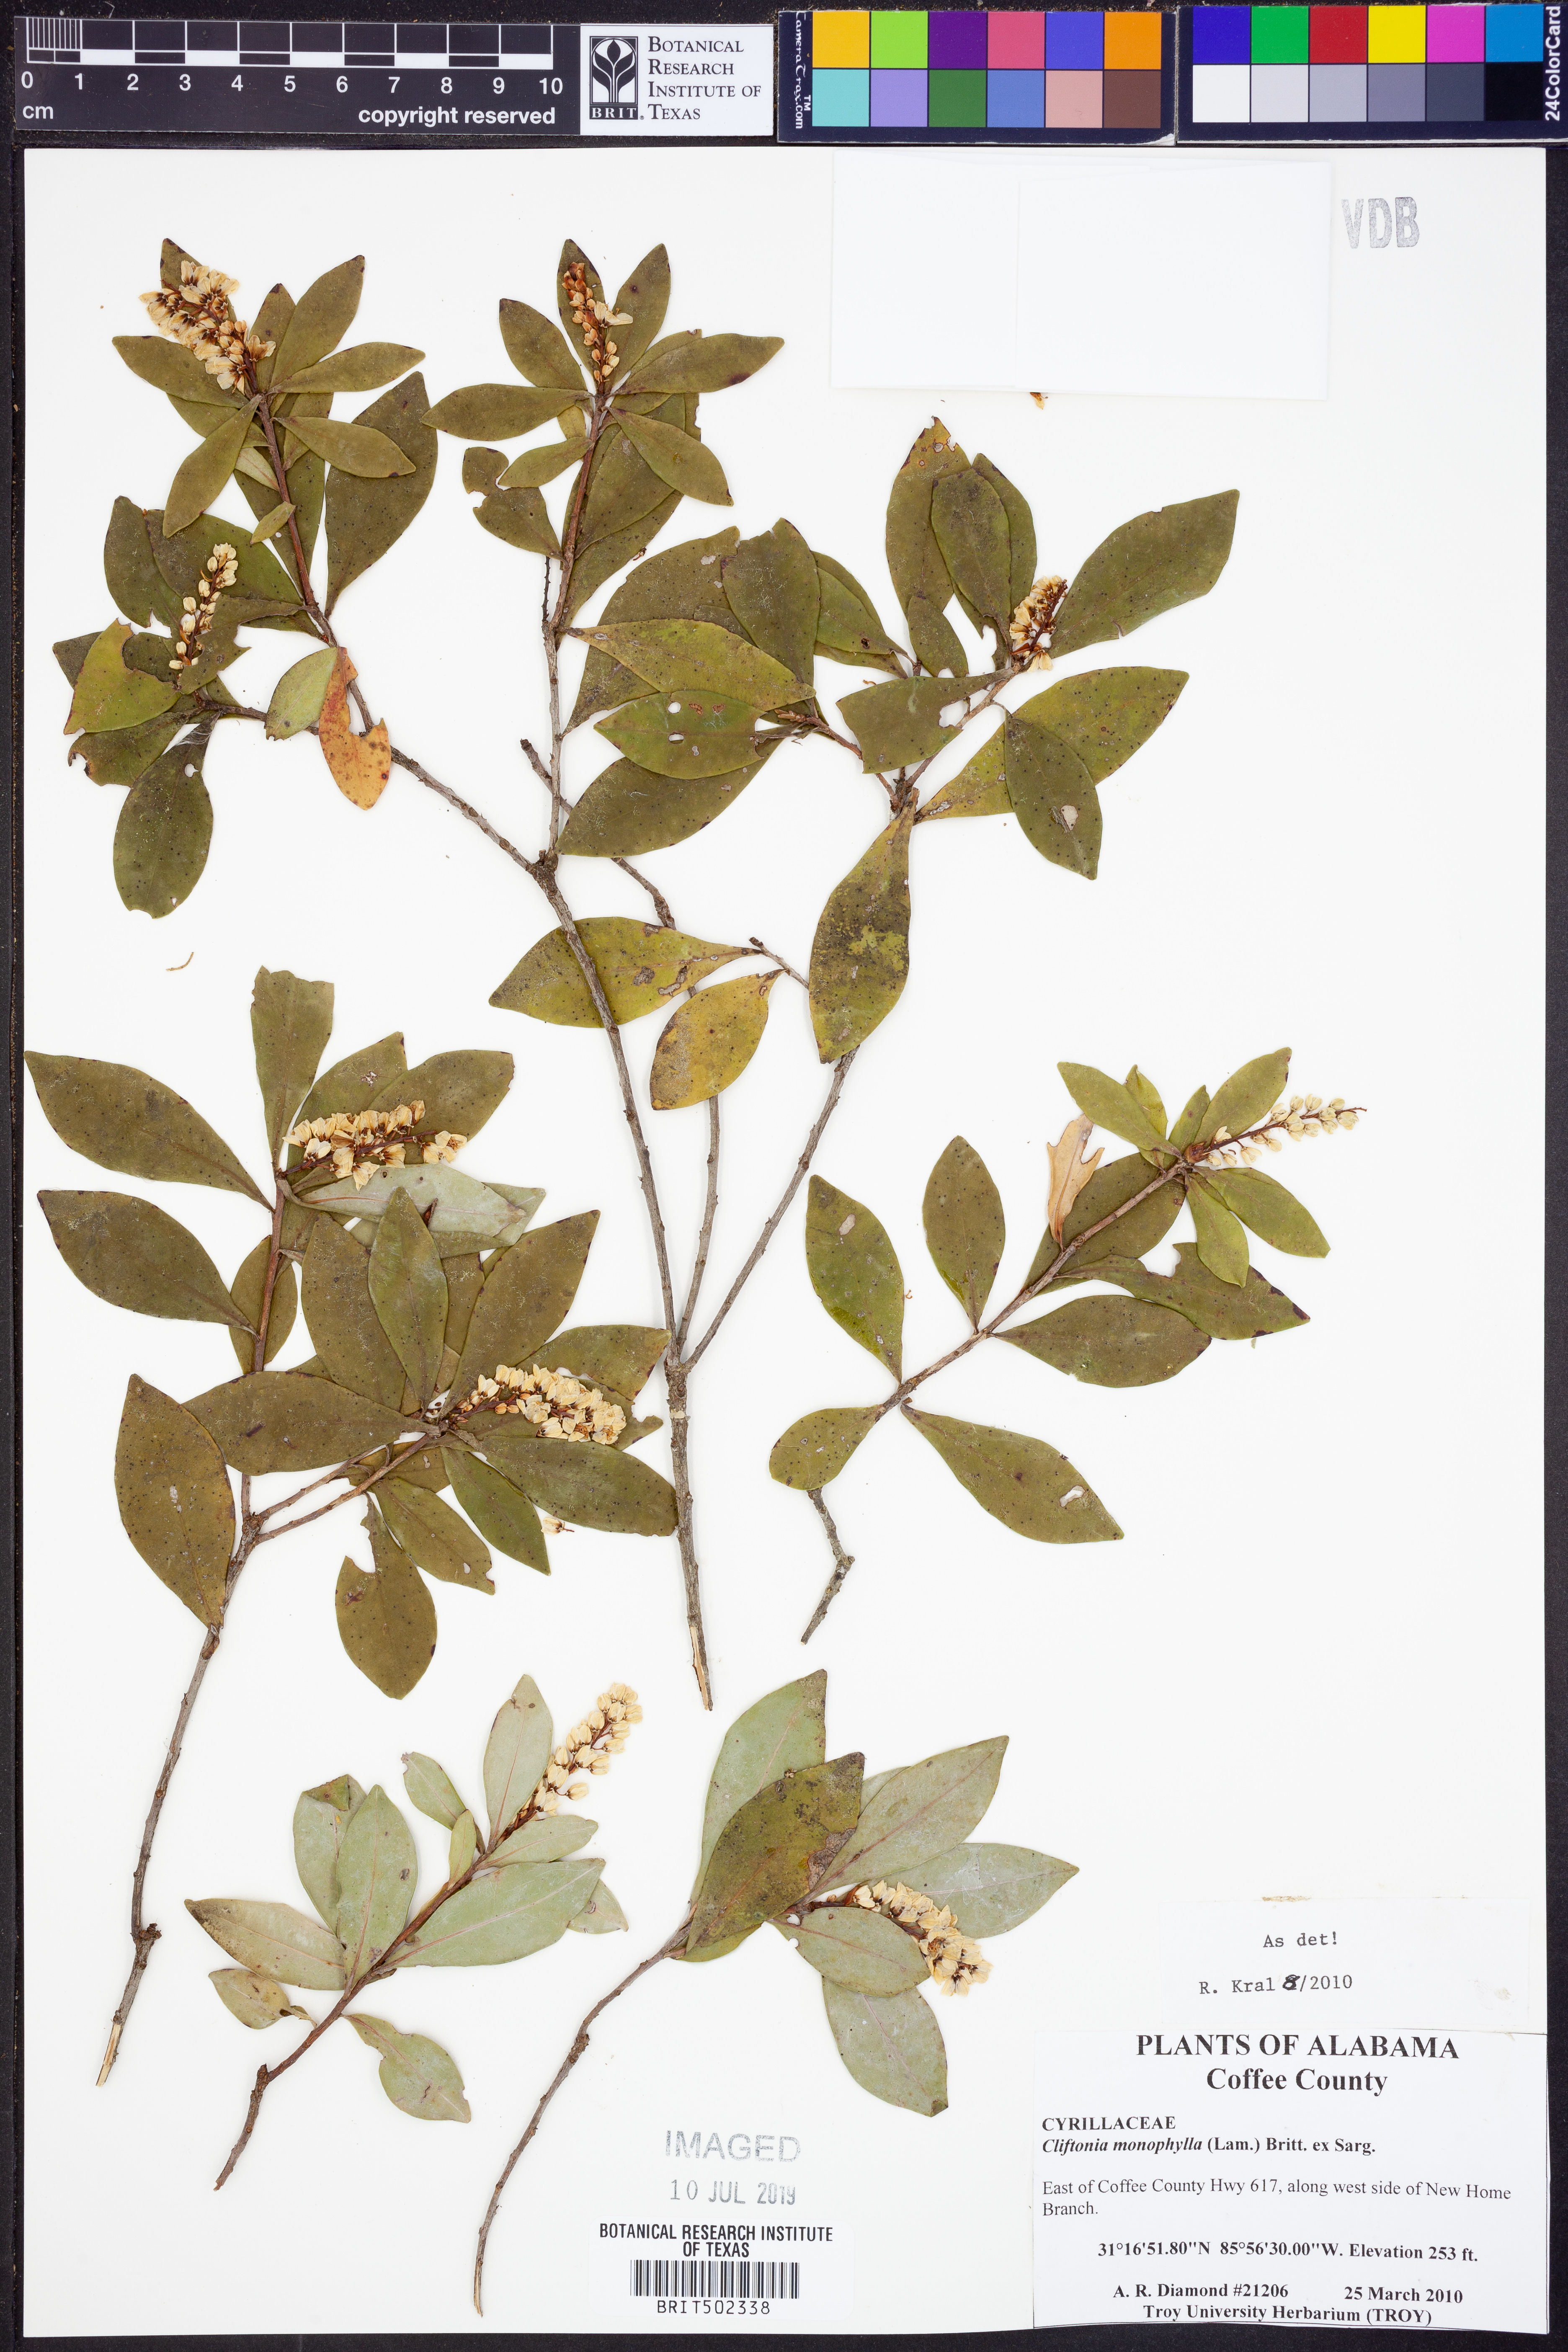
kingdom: Plantae
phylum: Tracheophyta
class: Magnoliopsida
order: Ericales
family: Cyrillaceae
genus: Cliftonia
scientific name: Cliftonia monophylla
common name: Titi
